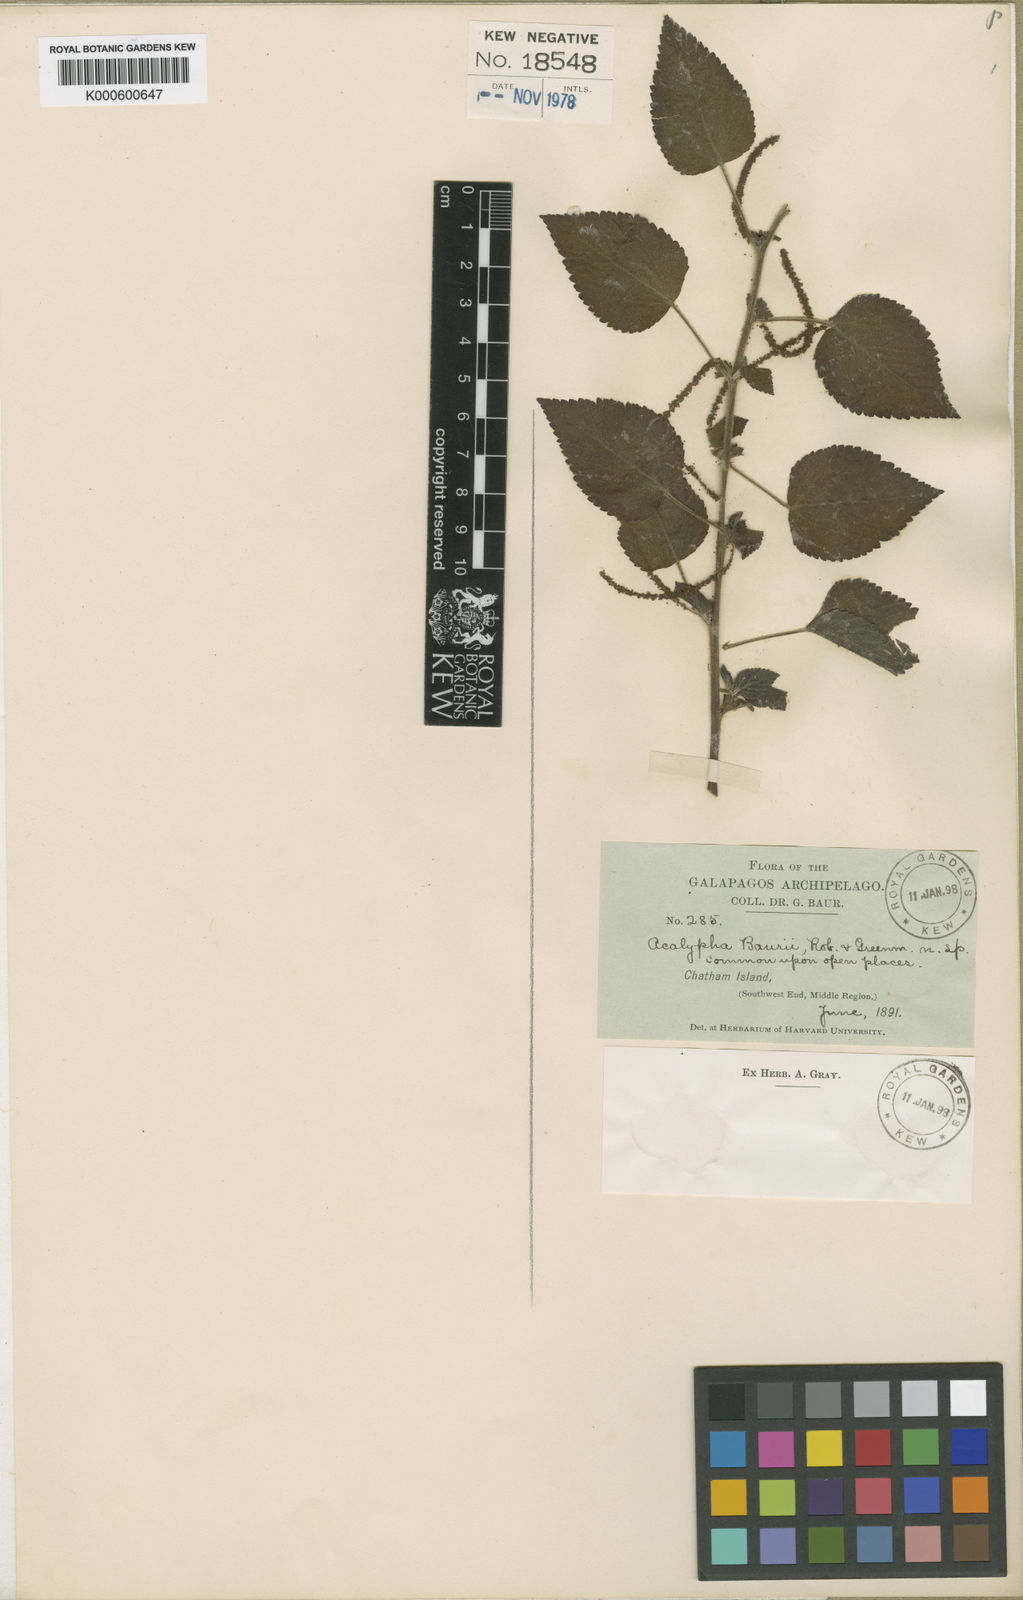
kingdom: Plantae
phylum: Tracheophyta
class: Magnoliopsida
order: Malpighiales
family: Euphorbiaceae
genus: Acalypha
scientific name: Acalypha sericea
